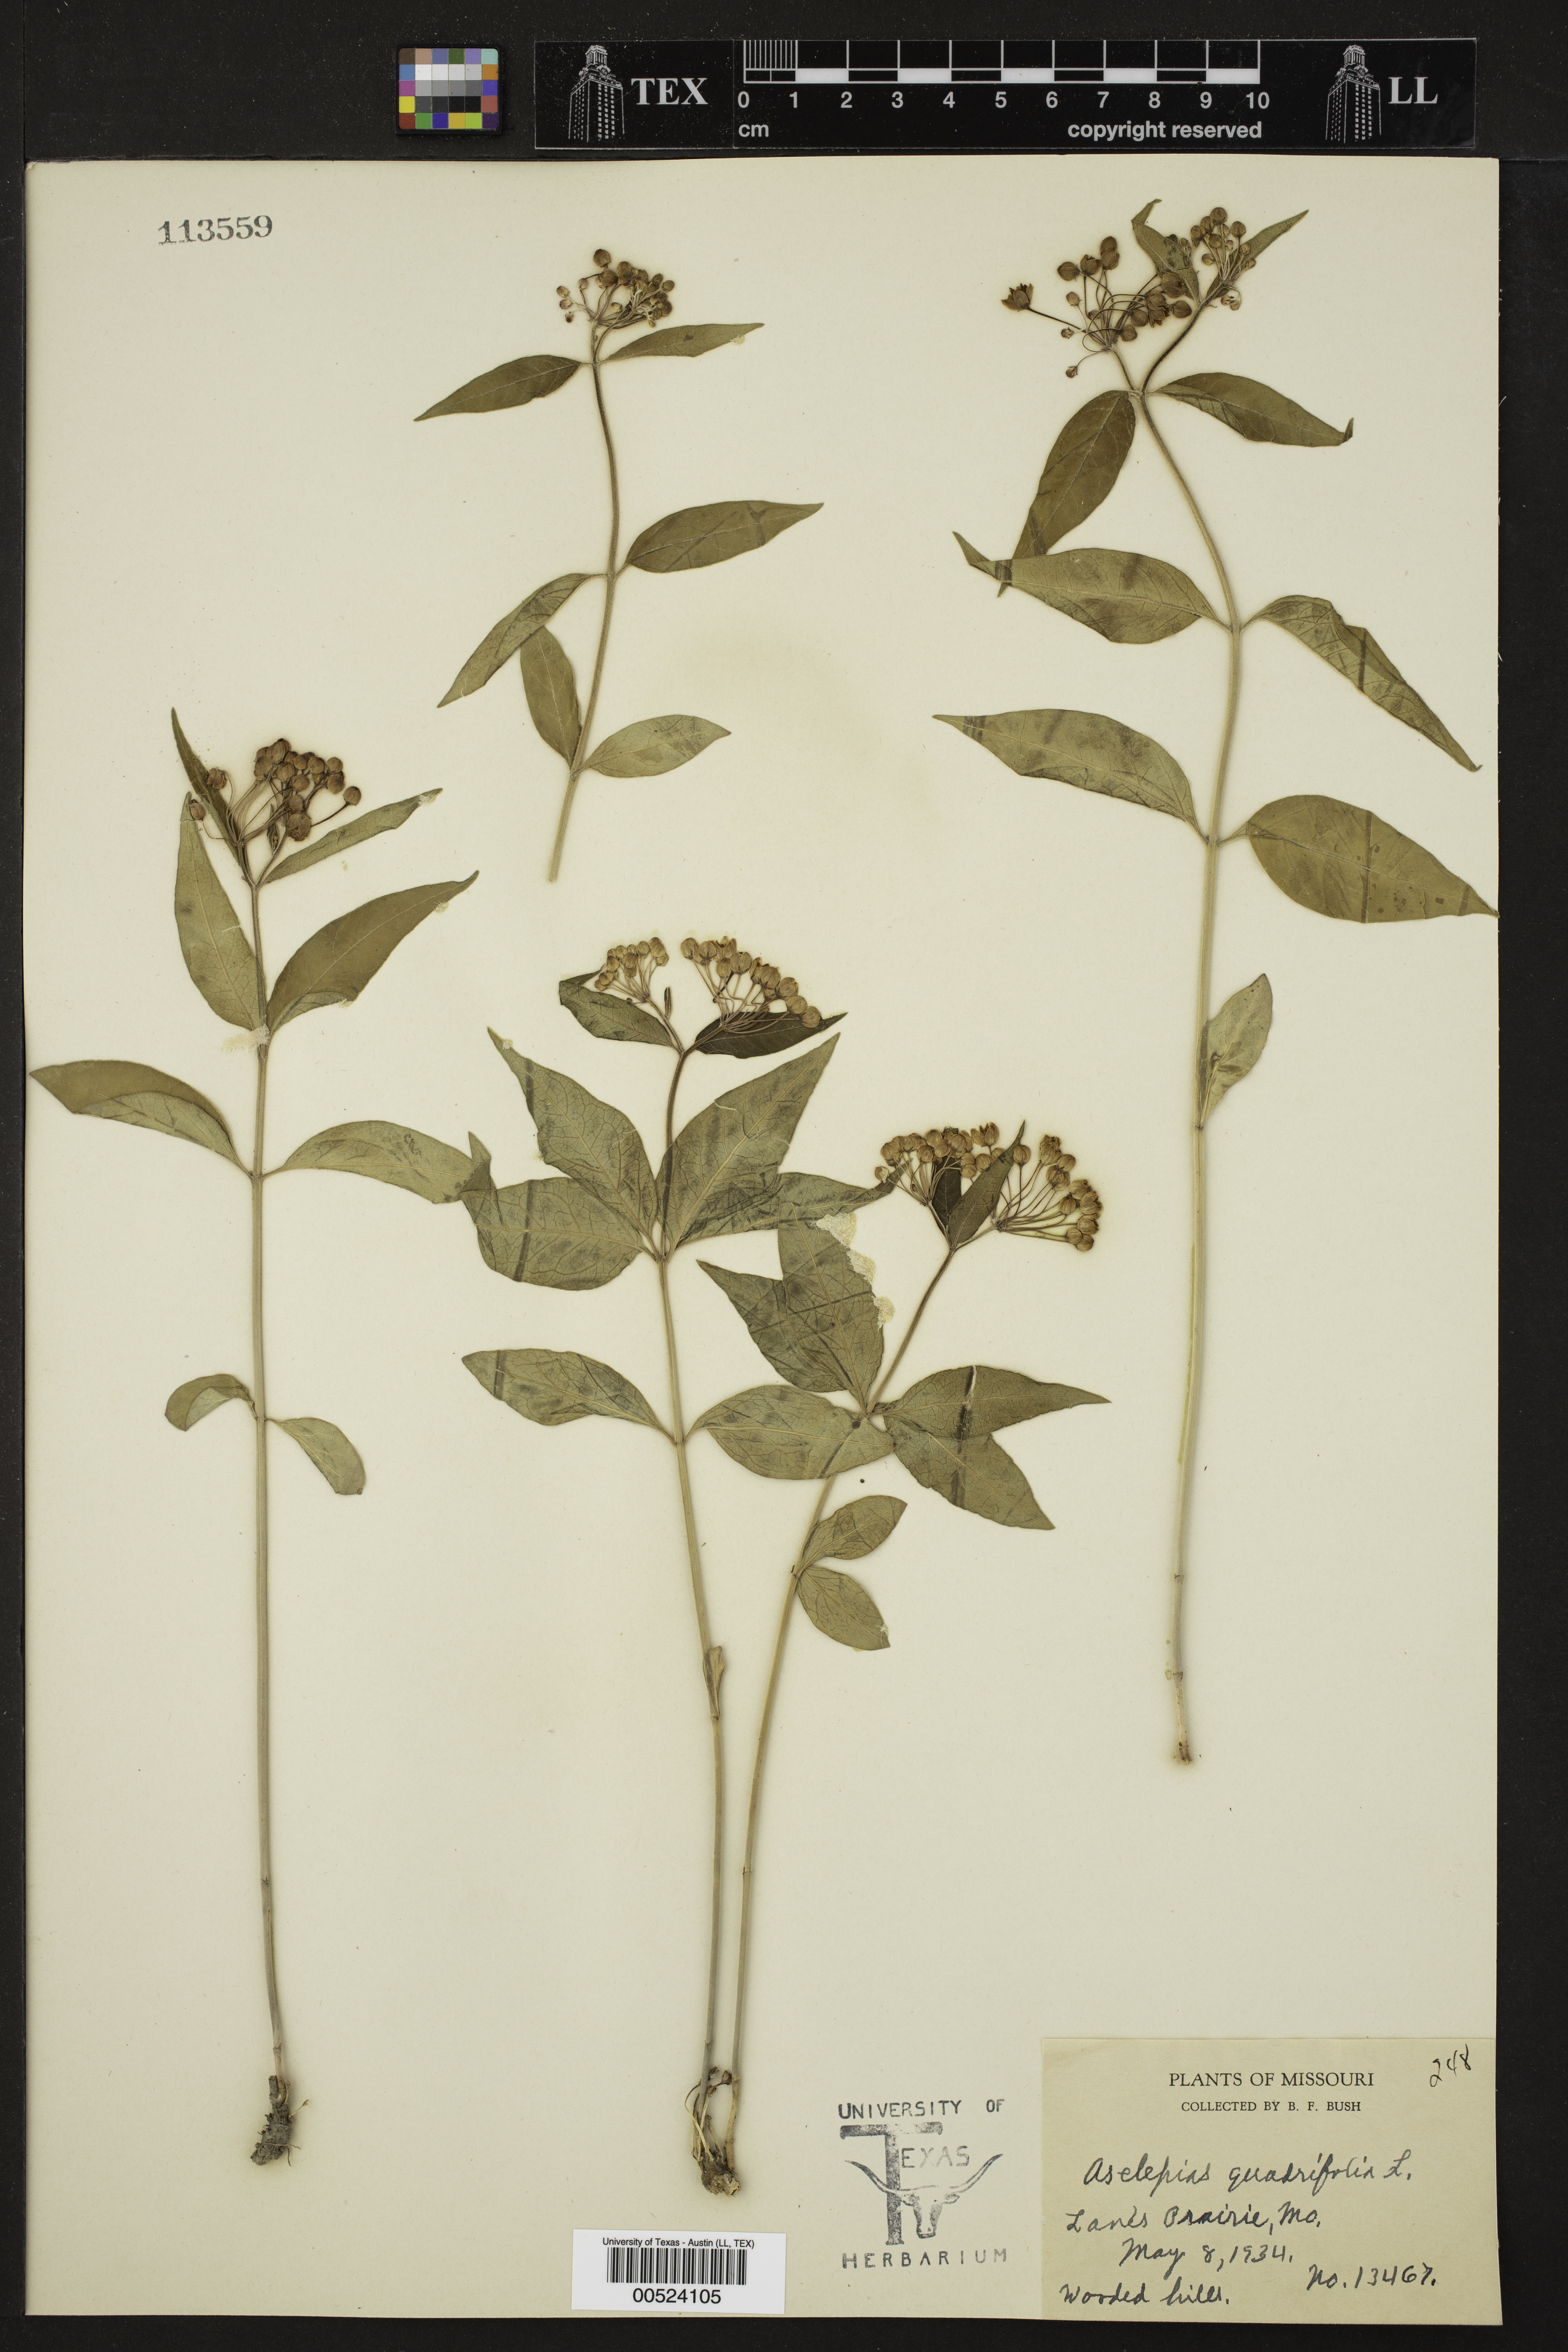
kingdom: Plantae
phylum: Tracheophyta
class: Magnoliopsida
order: Gentianales
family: Apocynaceae
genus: Asclepias
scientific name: Asclepias quadrifolia
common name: Whorled milkweed
